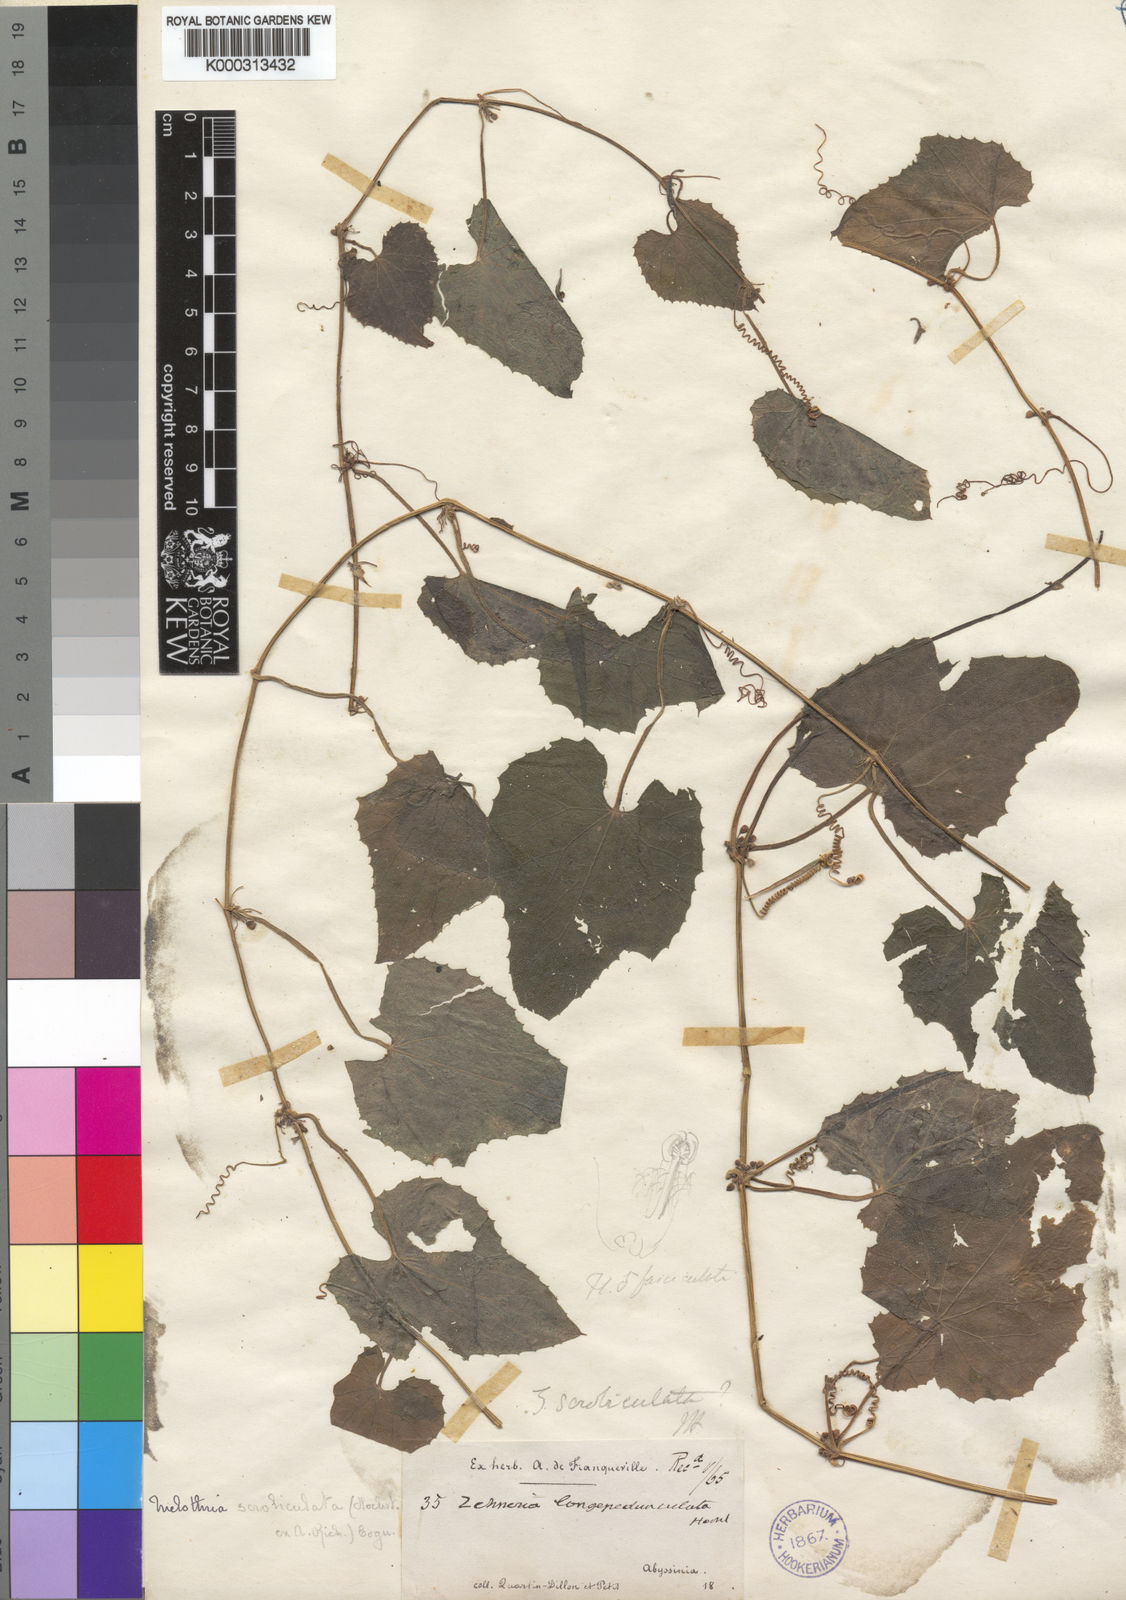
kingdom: Plantae
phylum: Tracheophyta
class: Magnoliopsida
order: Cucurbitales
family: Cucurbitaceae
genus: Zehneria
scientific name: Zehneria scabra
